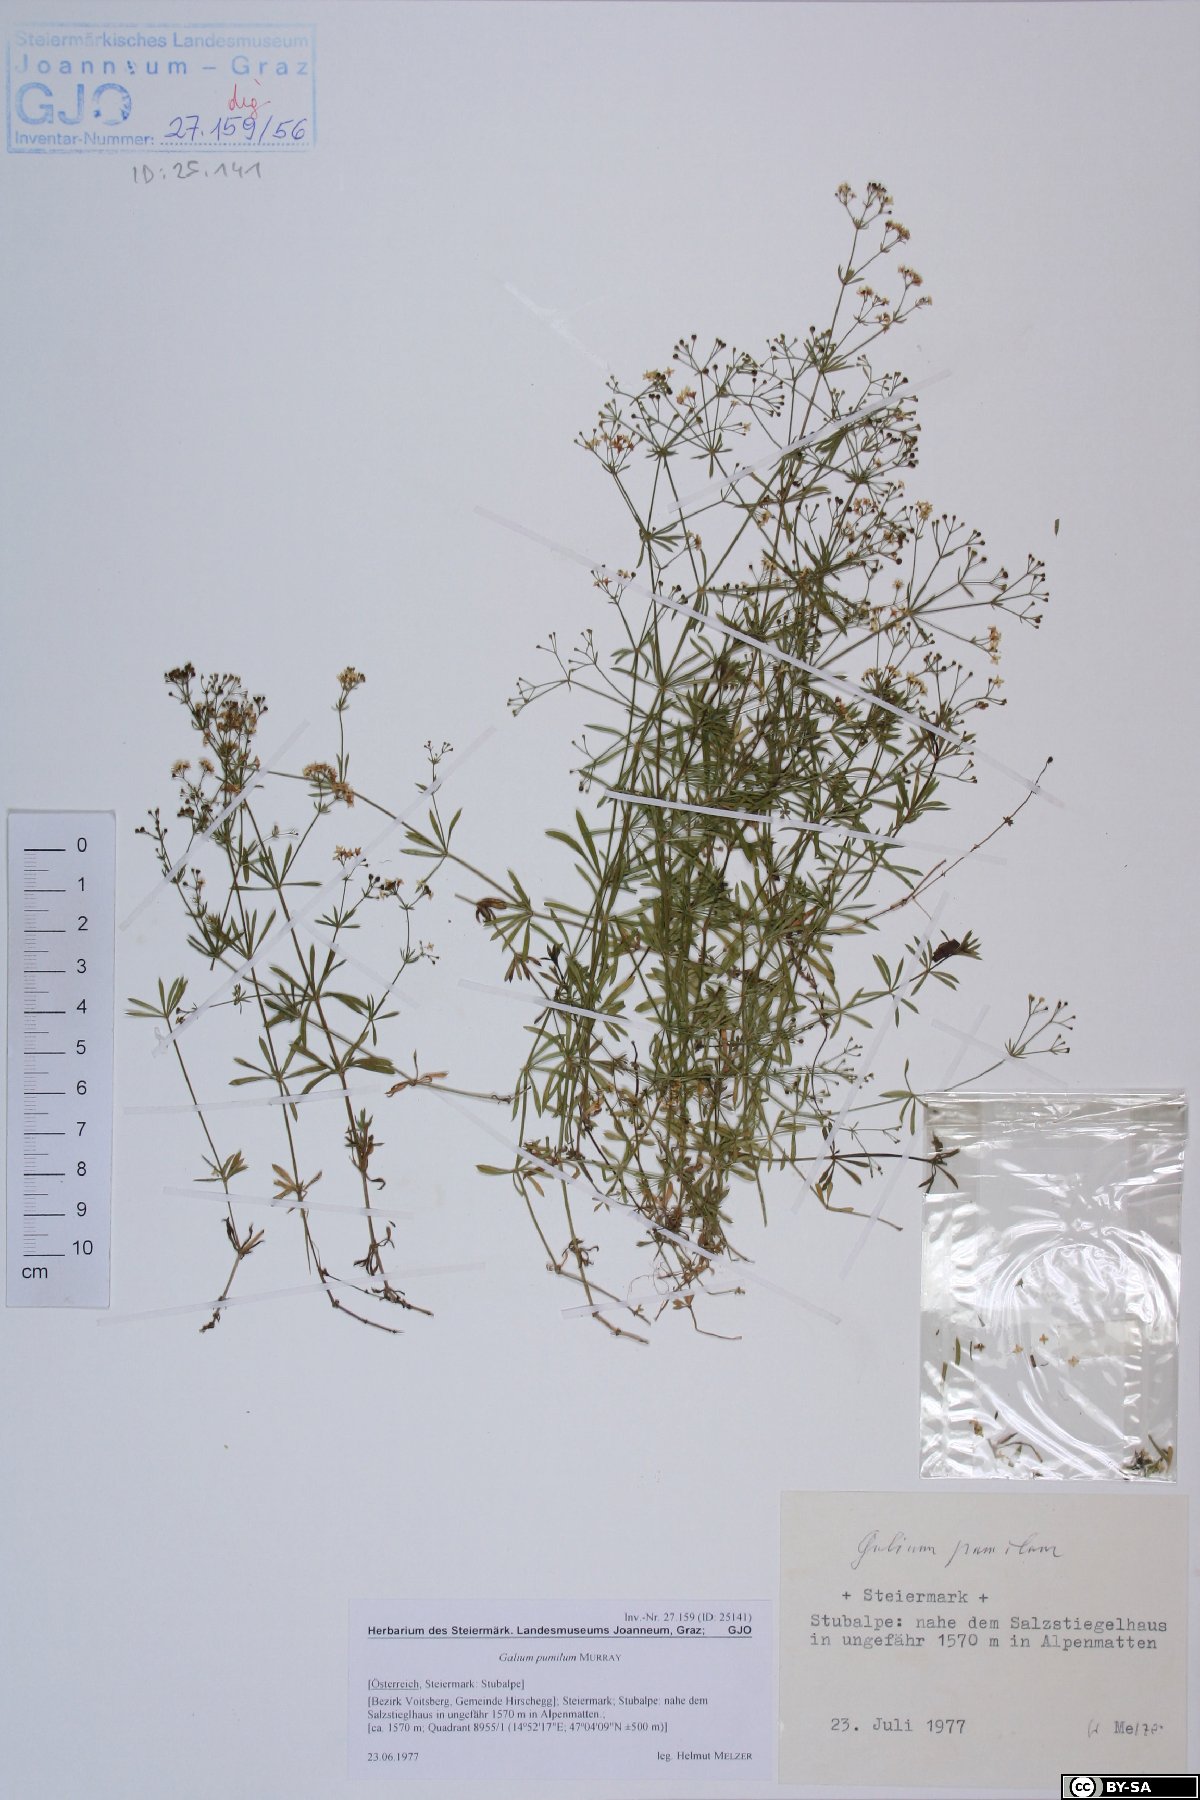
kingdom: Plantae
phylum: Tracheophyta
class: Magnoliopsida
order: Gentianales
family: Rubiaceae
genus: Galium
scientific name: Galium pumilum
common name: Slender bedstraw
